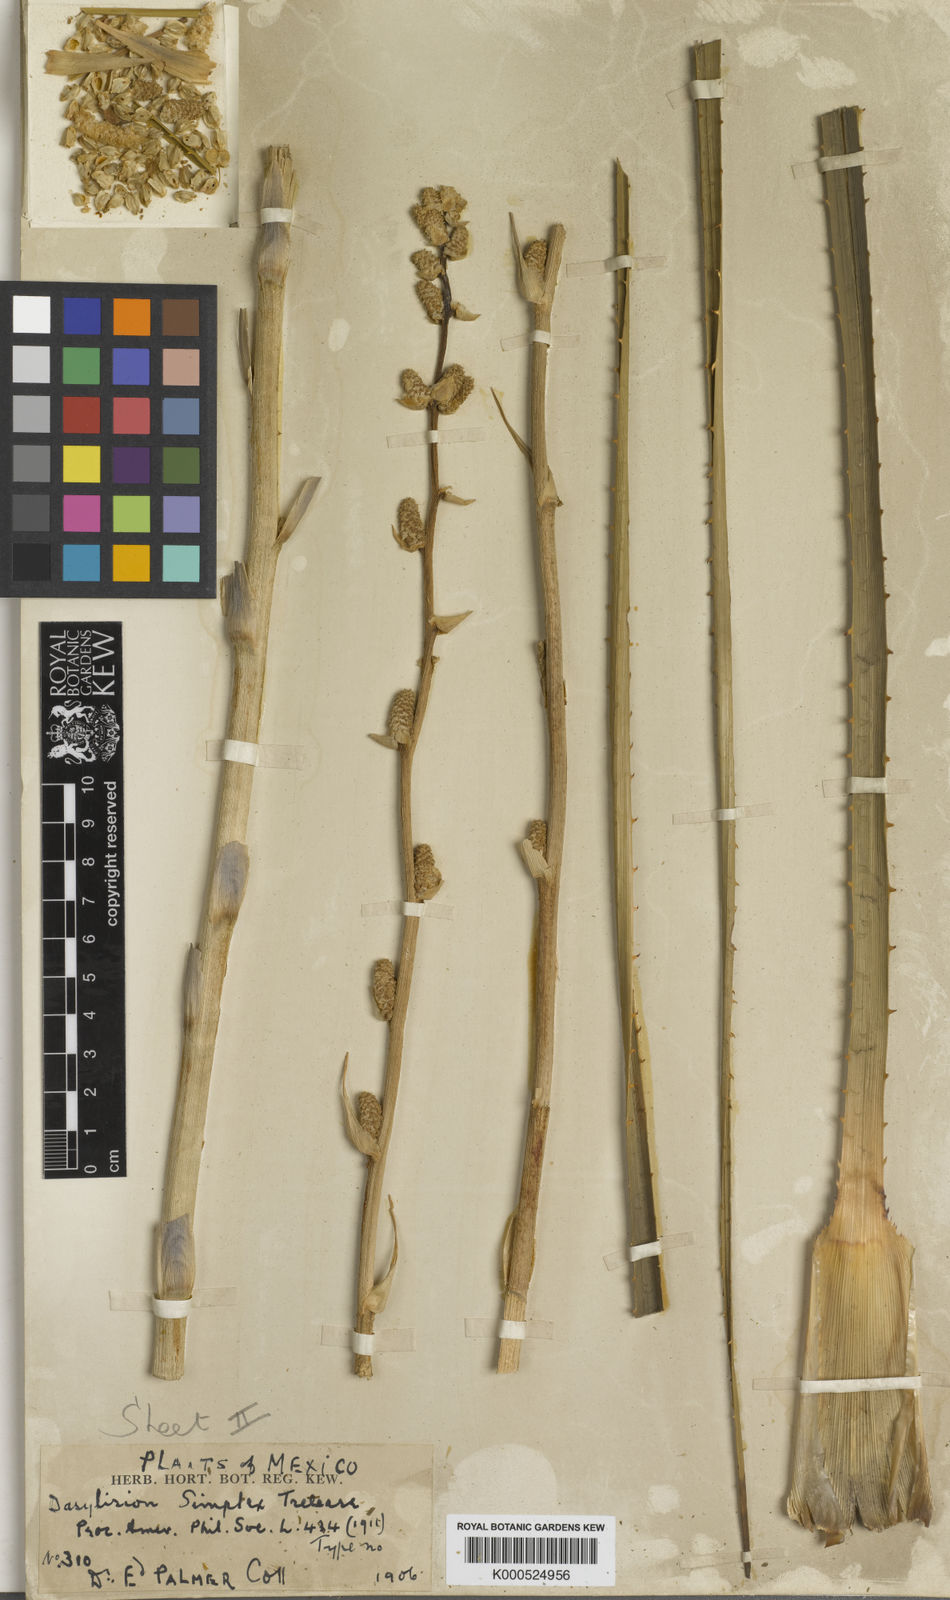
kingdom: Plantae
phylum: Tracheophyta
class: Liliopsida
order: Asparagales
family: Asparagaceae
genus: Dasylirion
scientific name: Dasylirion simplex
